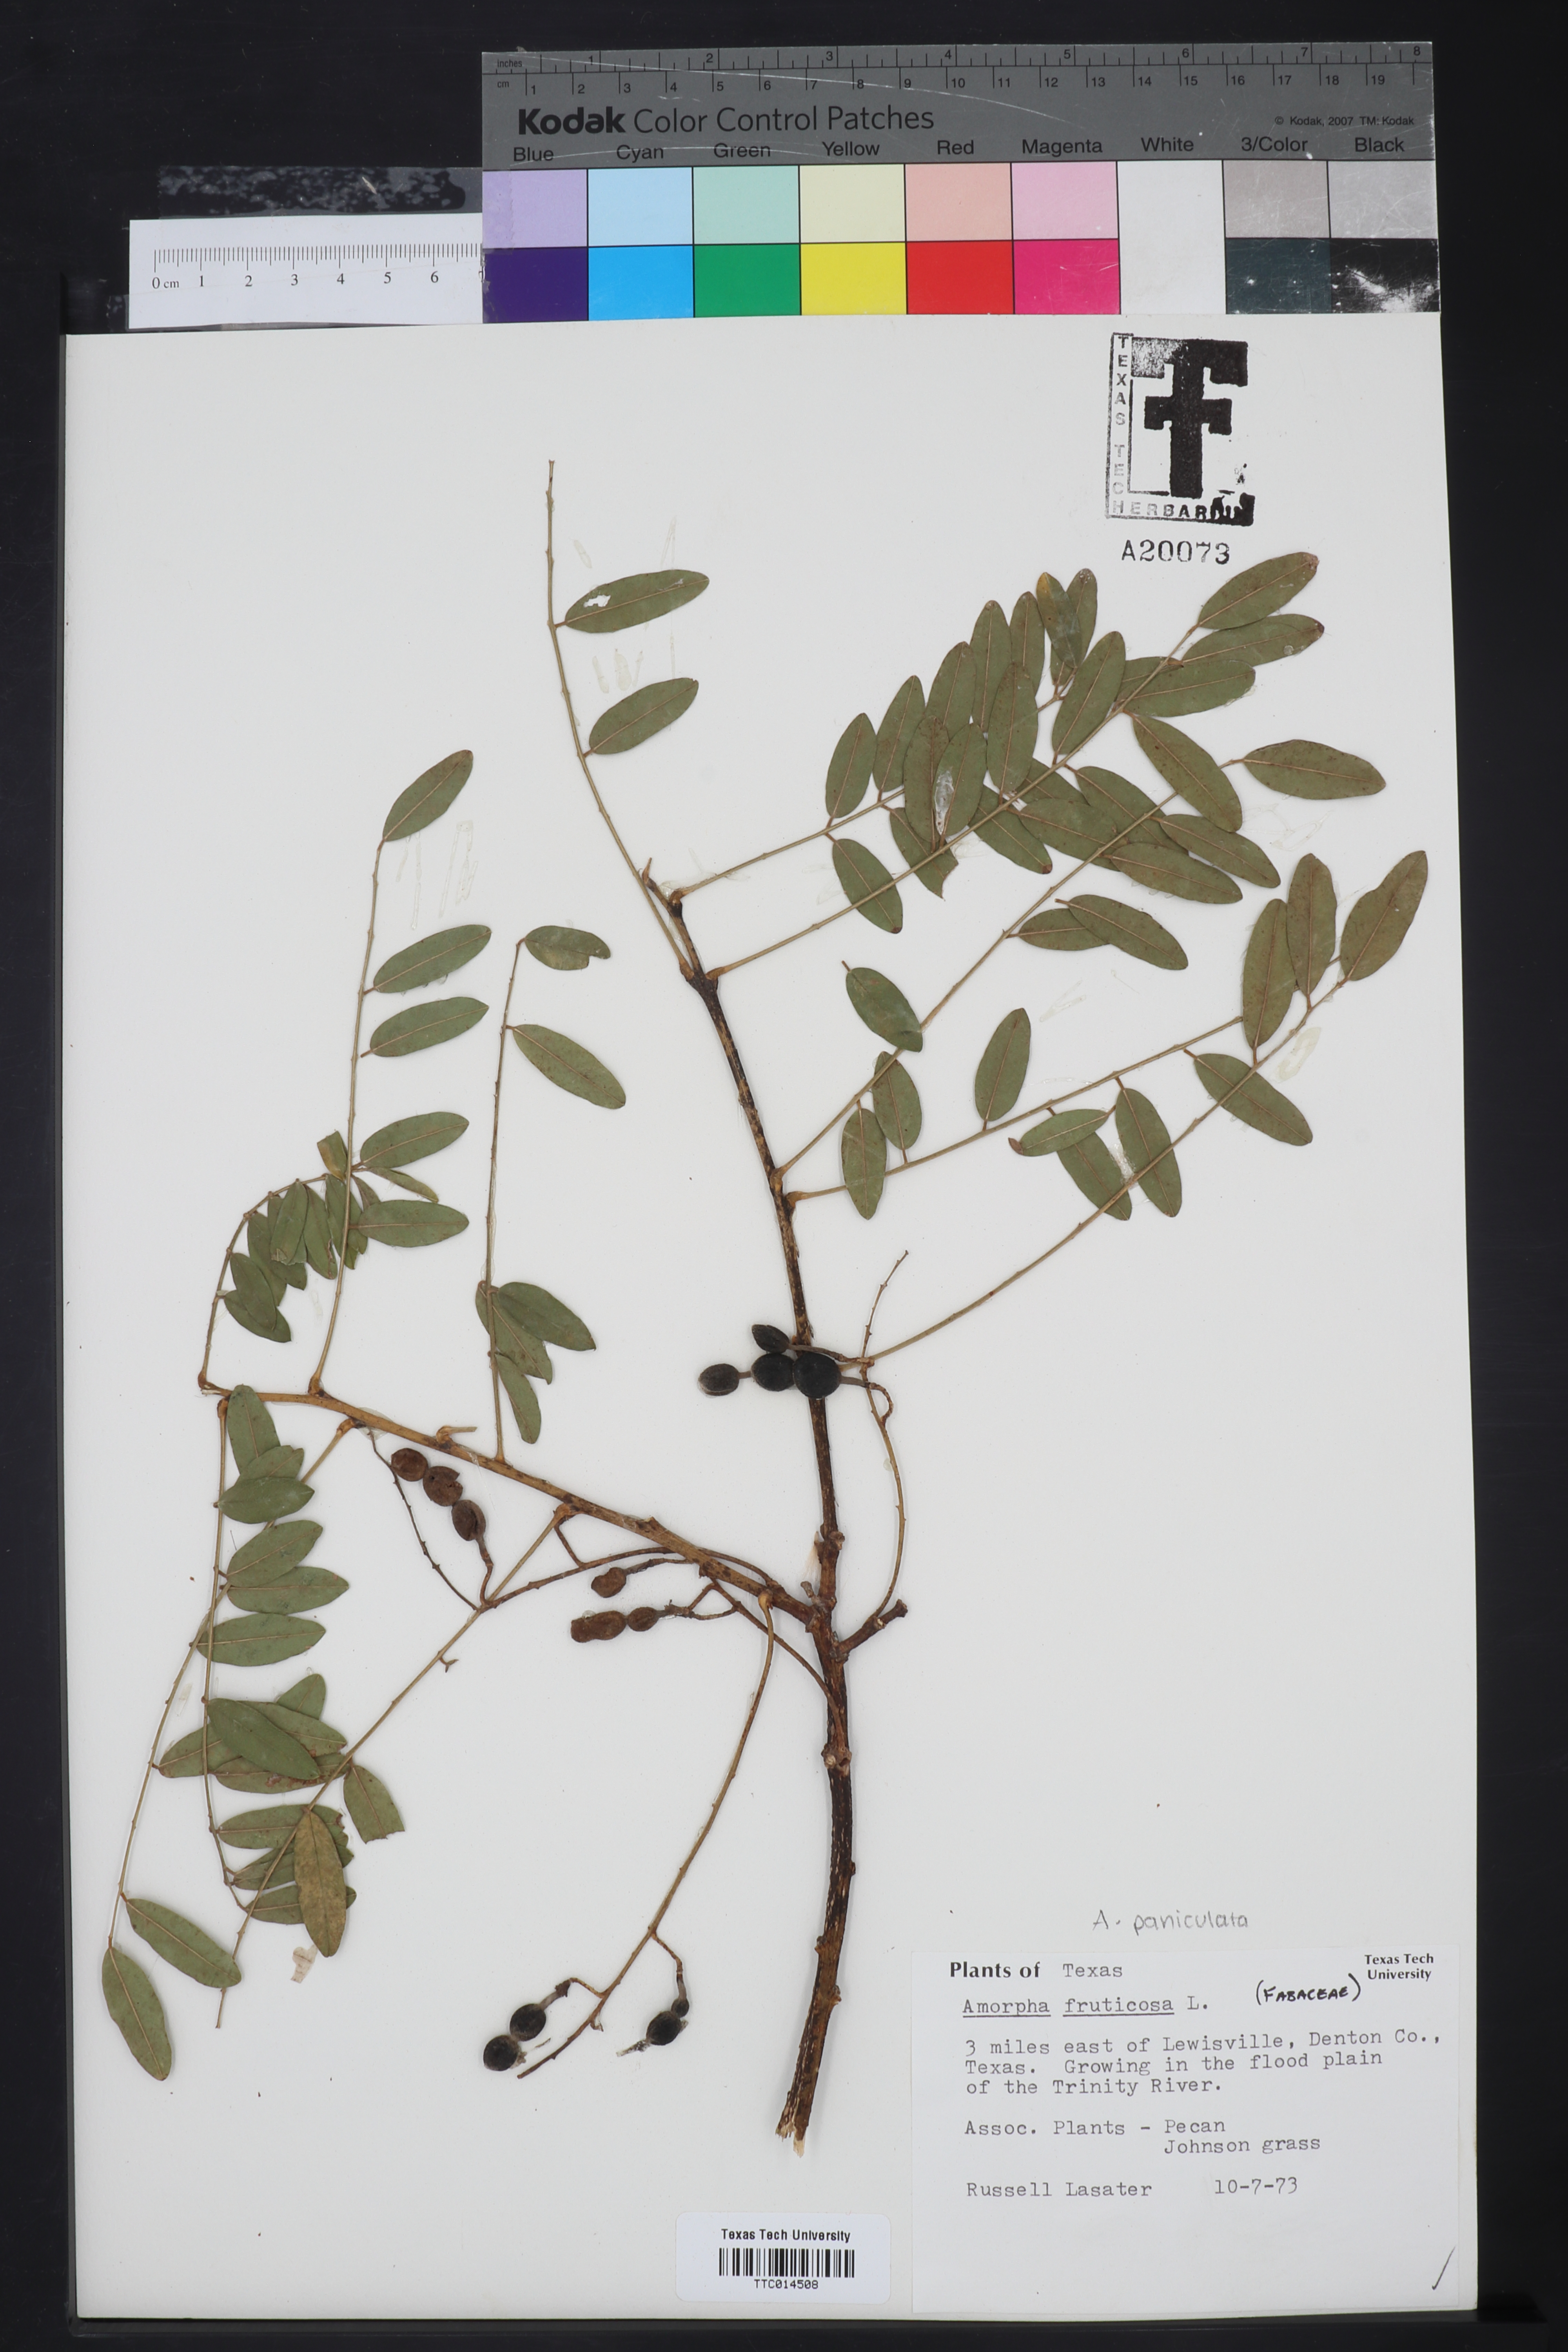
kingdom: Plantae
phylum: Tracheophyta
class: Magnoliopsida
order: Fabales
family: Fabaceae
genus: Amorpha
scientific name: Amorpha fruticosa
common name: False indigo
